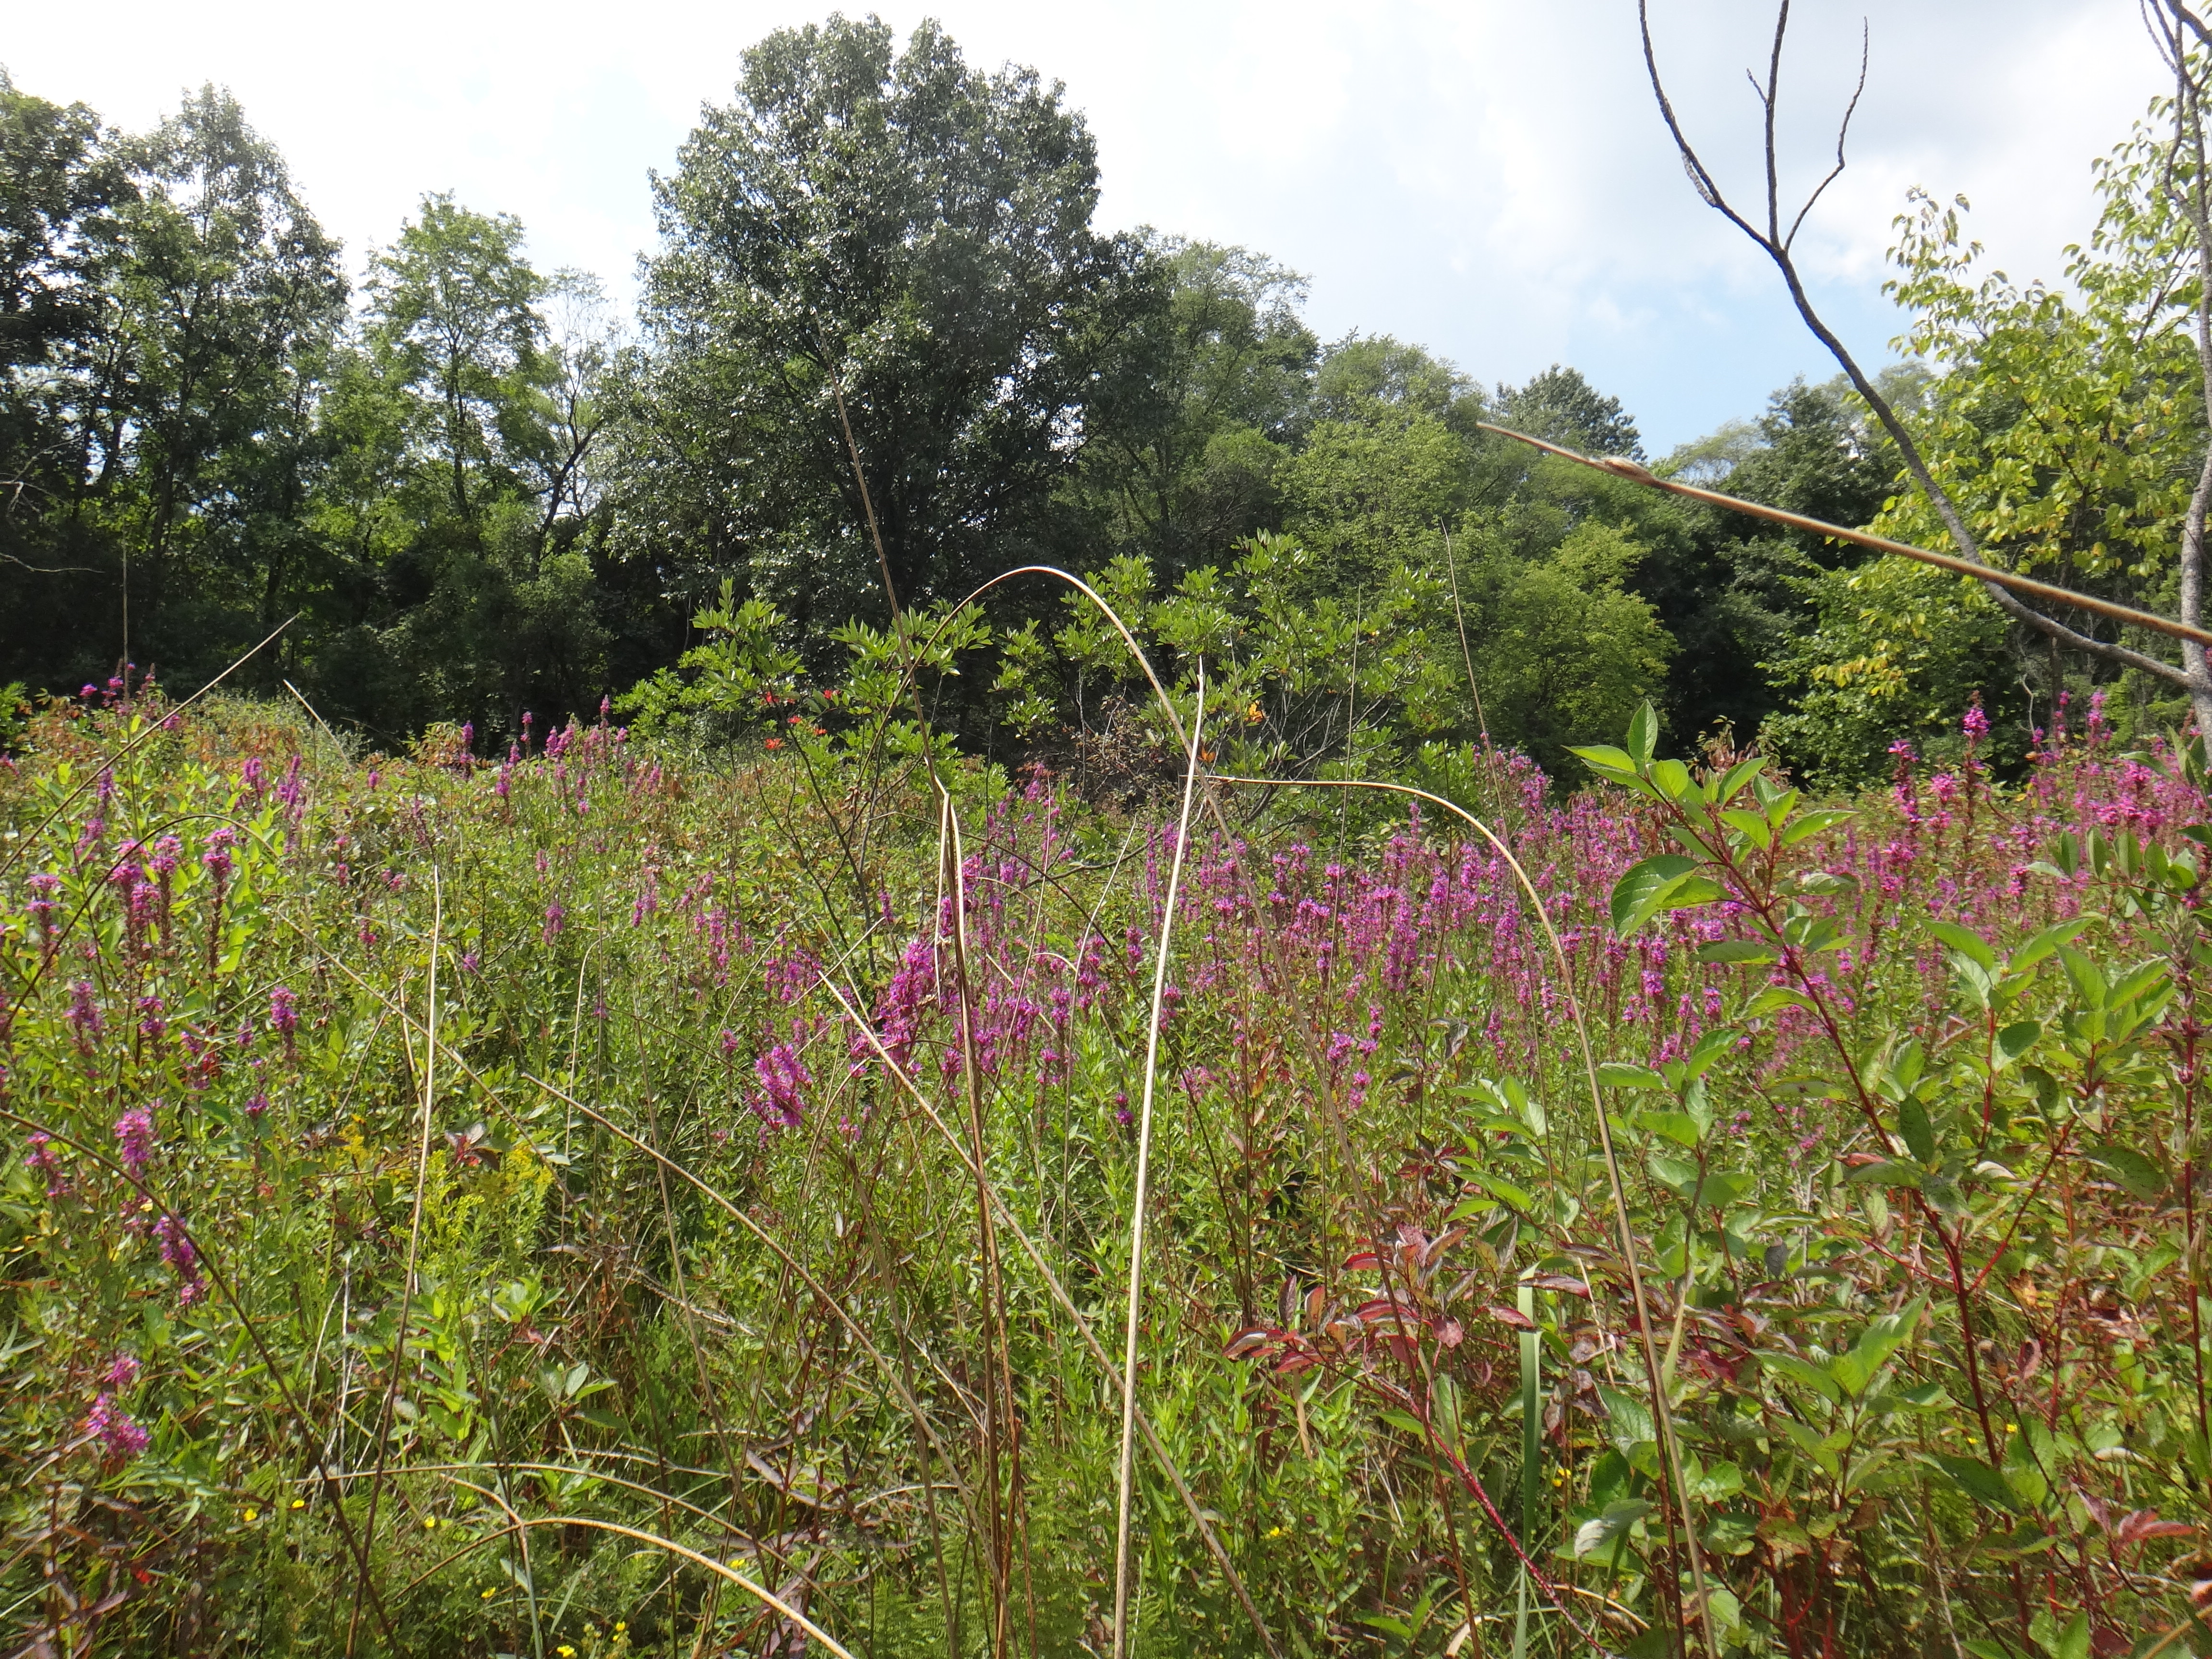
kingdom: Plantae
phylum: Tracheophyta
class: Polypodiopsida
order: Polypodiales
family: Thelypteridaceae
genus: Thelypteris
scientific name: Thelypteris palustris
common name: Marsh fern
